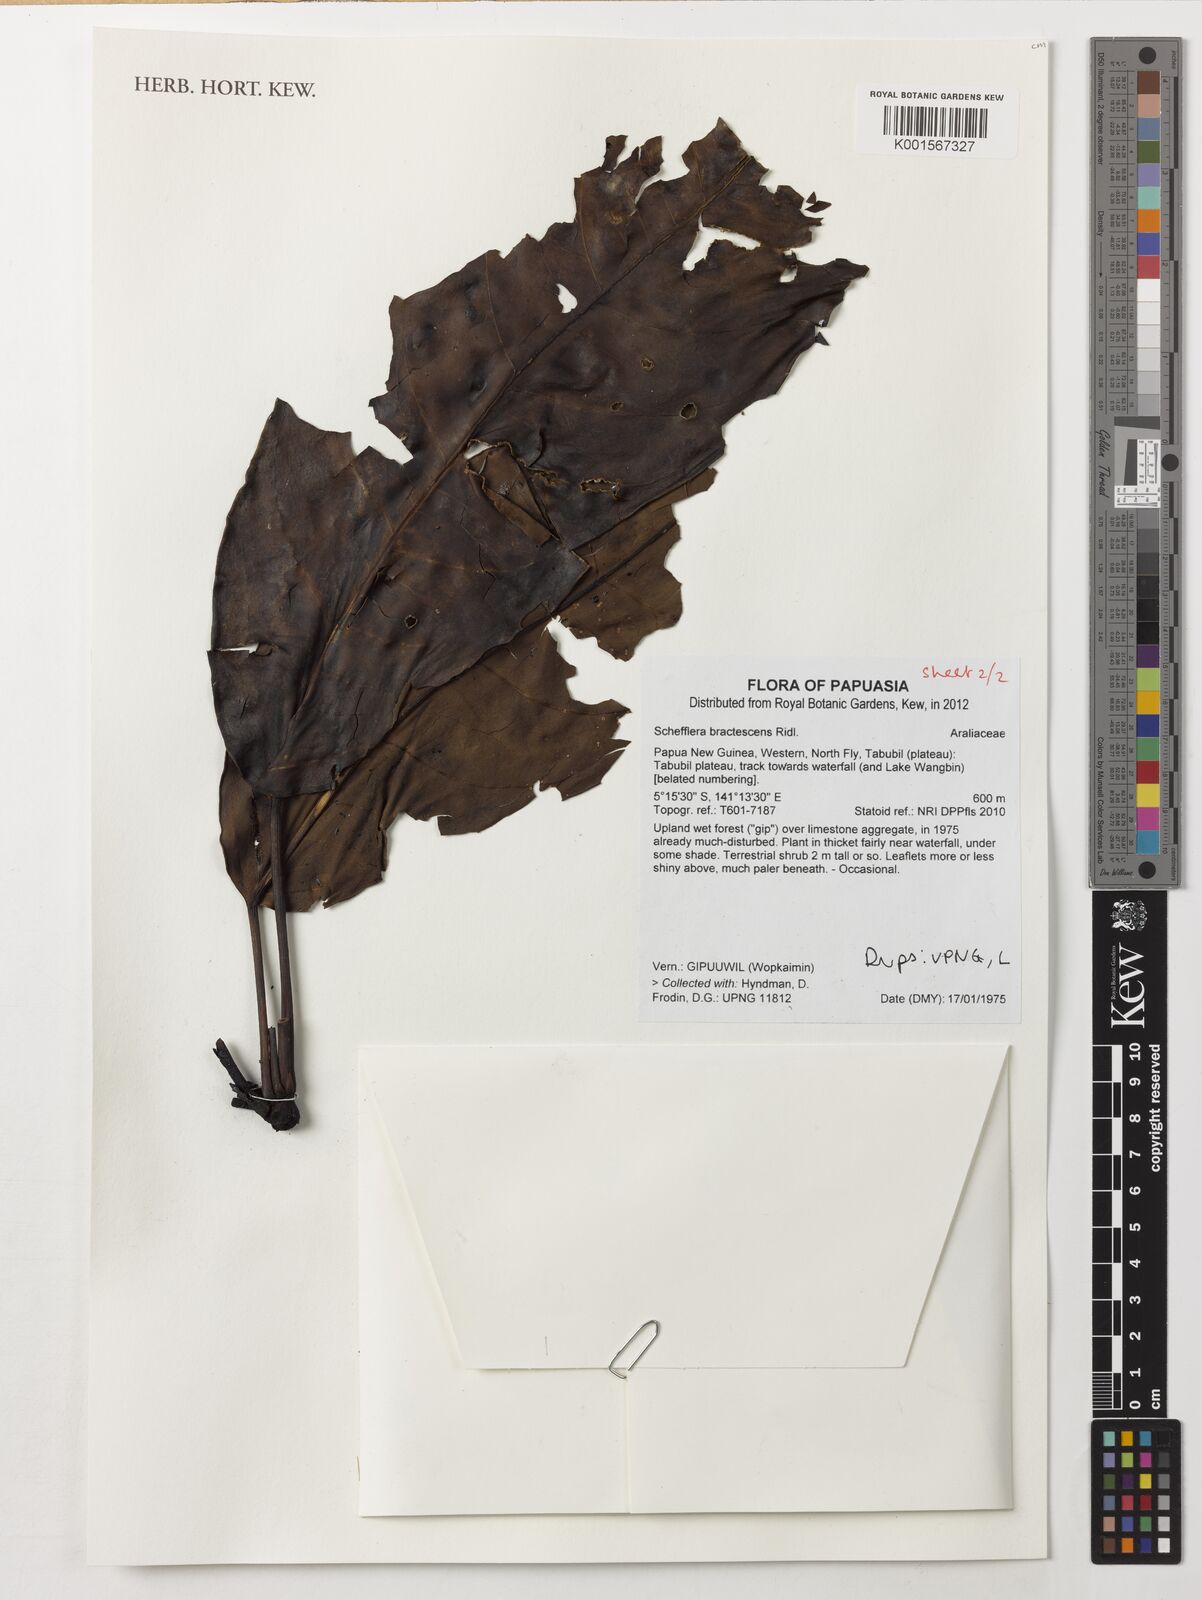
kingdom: Plantae
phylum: Tracheophyta
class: Magnoliopsida
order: Apiales
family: Araliaceae
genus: Heptapleurum
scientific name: Heptapleurum bractescens
